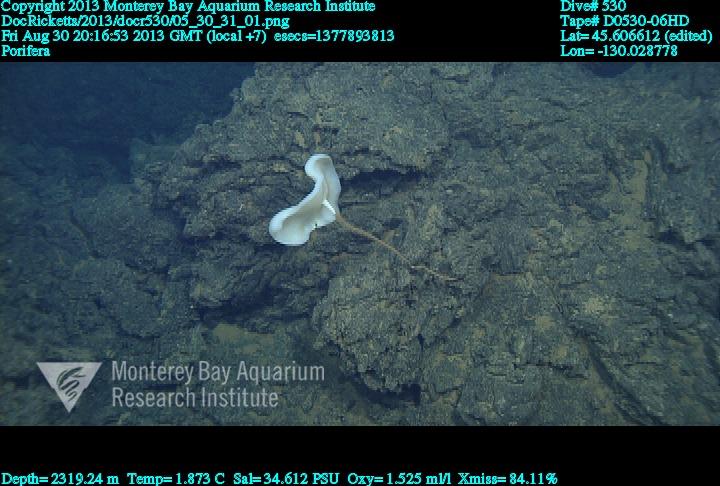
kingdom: Animalia
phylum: Porifera
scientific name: Porifera
